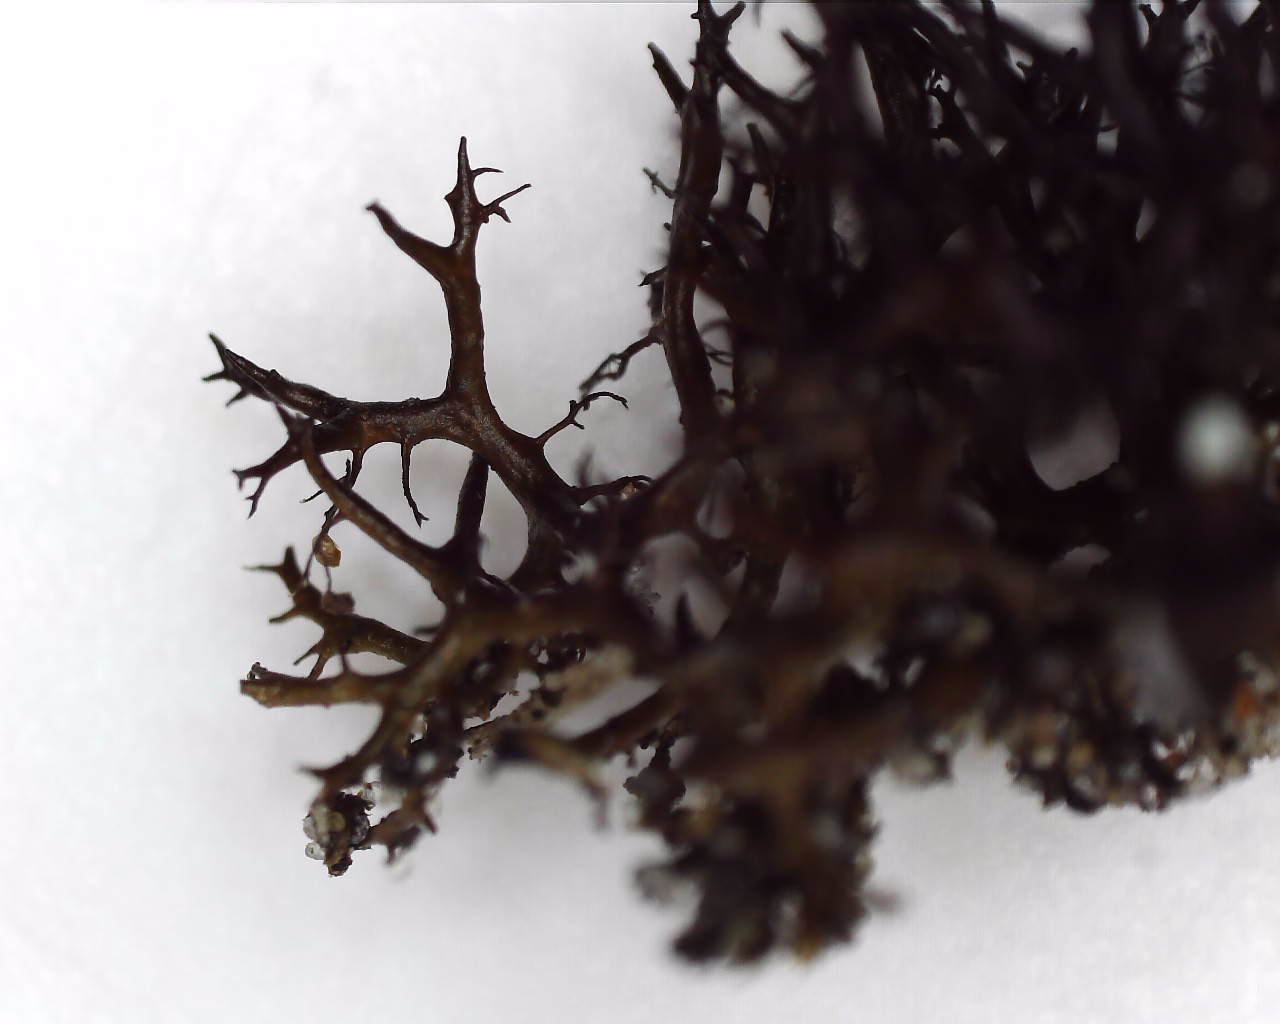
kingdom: Fungi
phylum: Ascomycota
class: Lecanoromycetes
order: Lecanorales
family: Parmeliaceae
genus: Cetraria
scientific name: Cetraria muricata
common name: tue-tjørnelav
